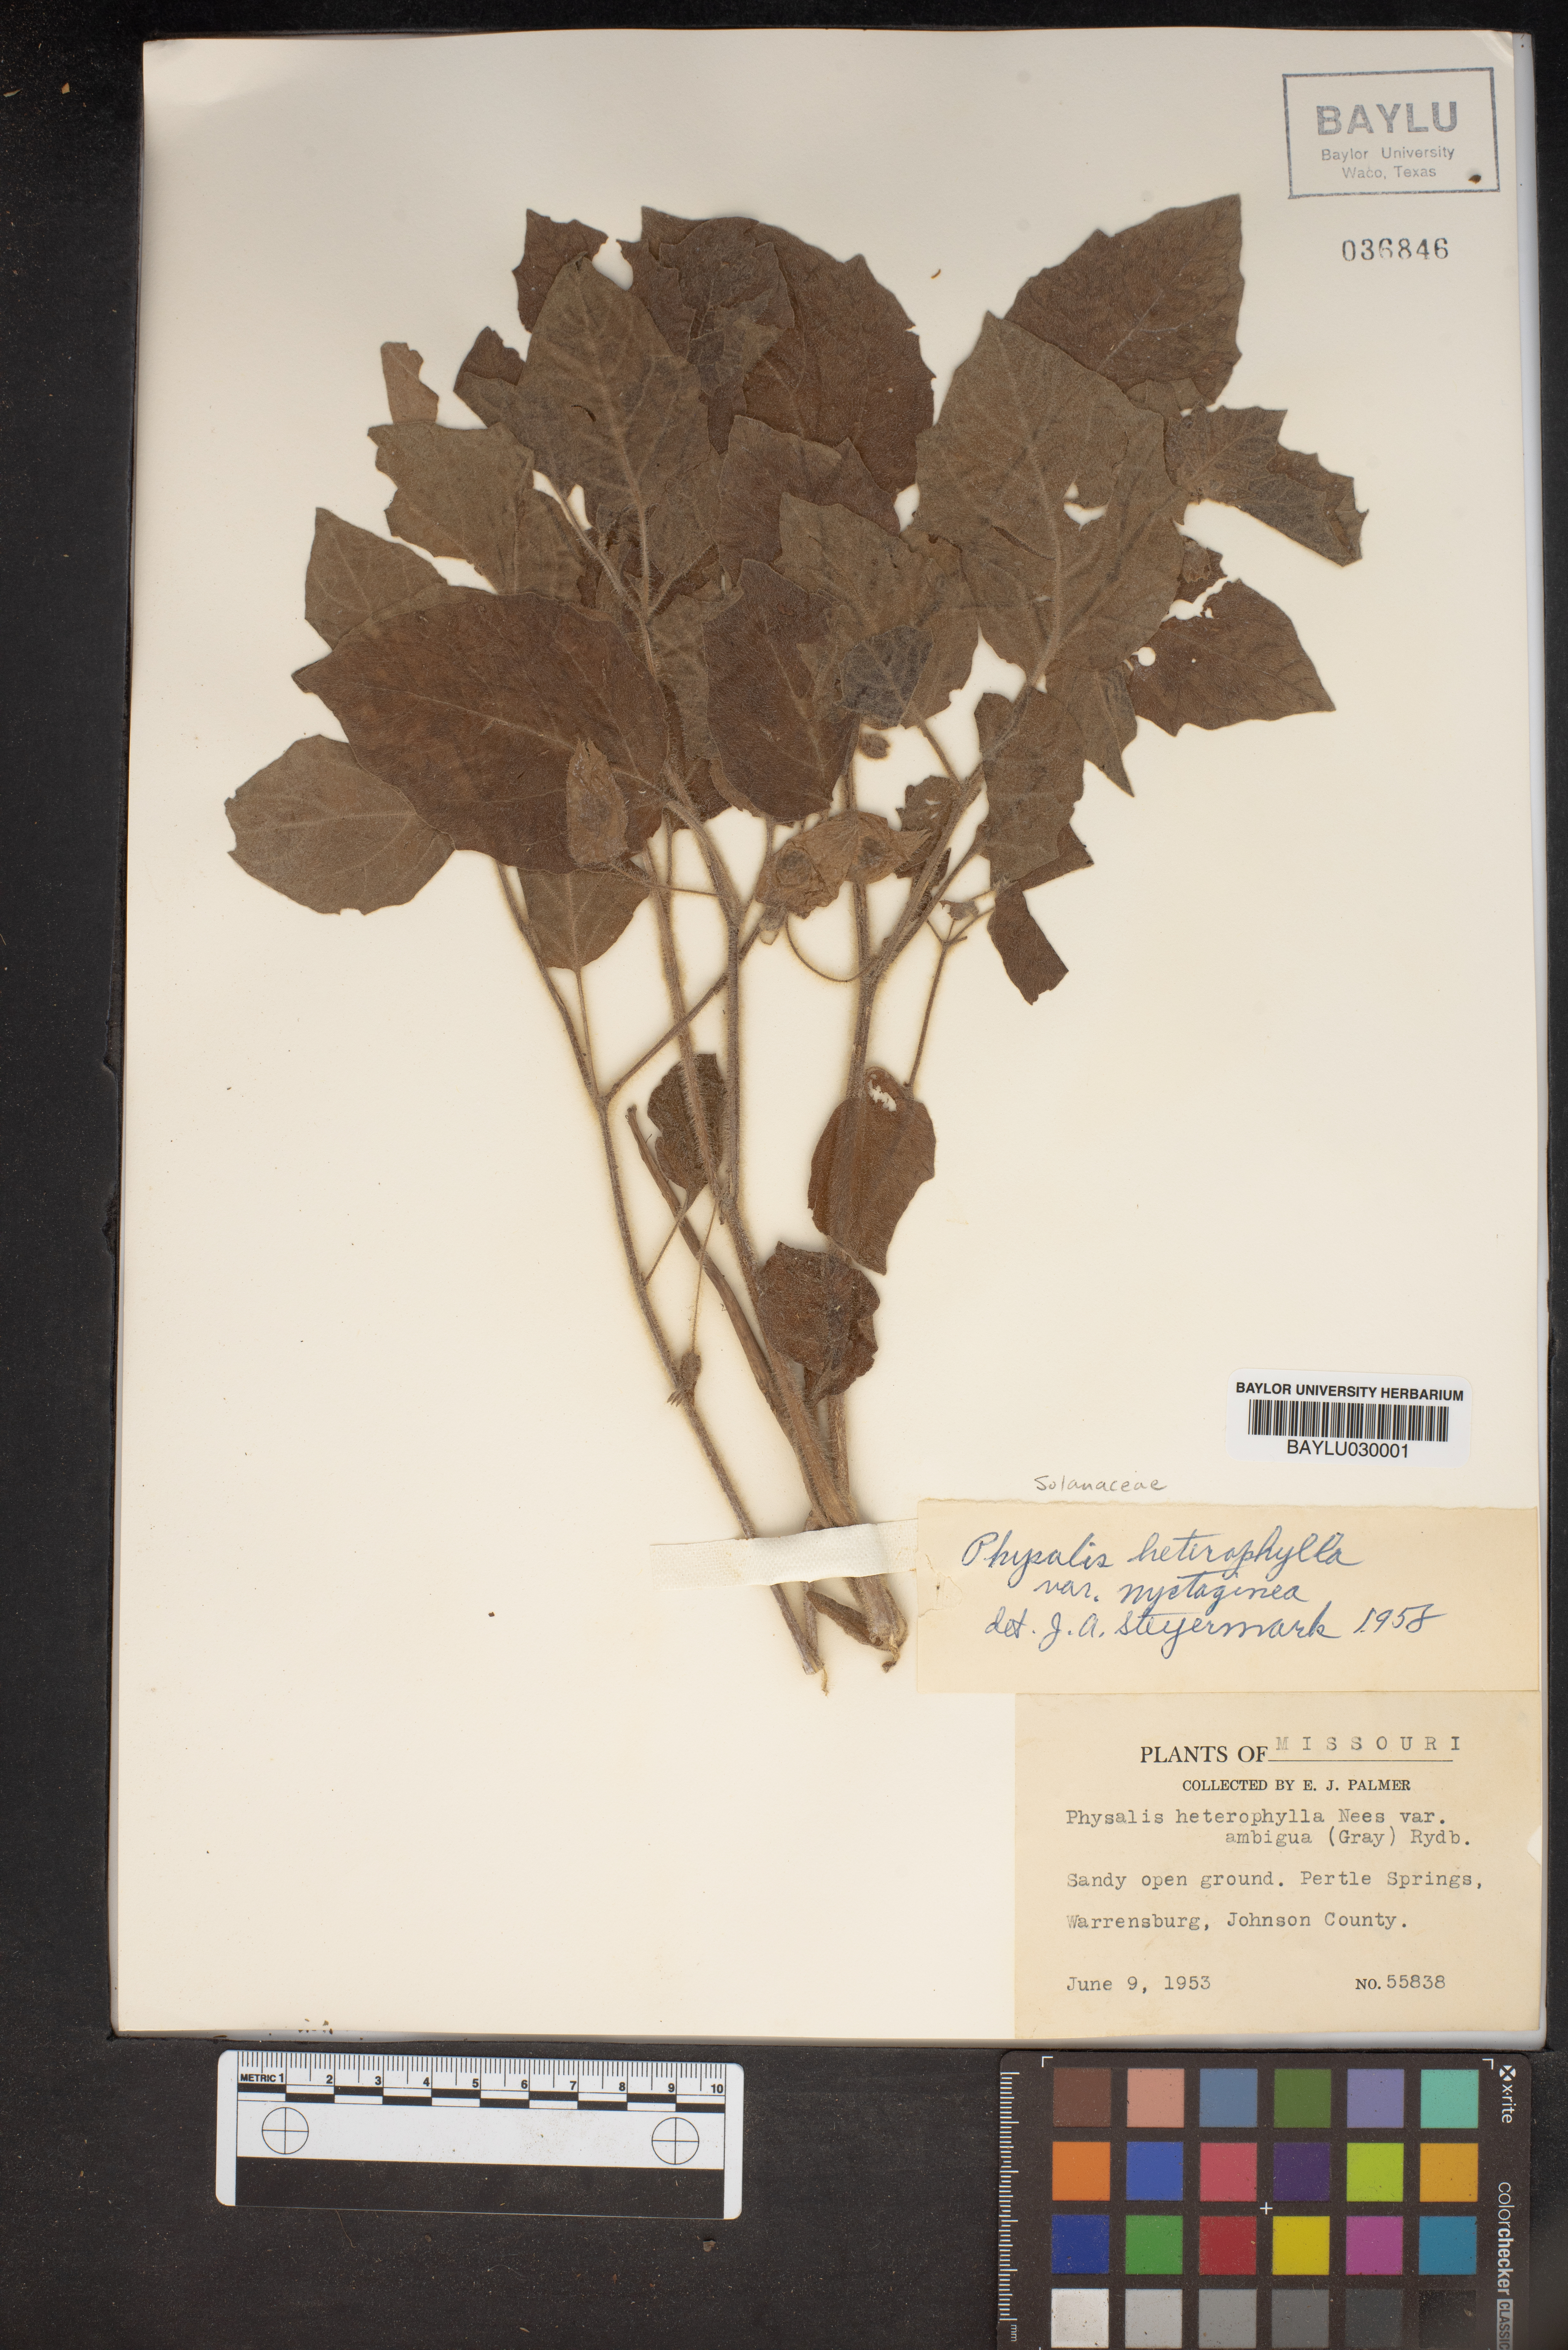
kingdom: Plantae
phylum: Tracheophyta
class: Magnoliopsida
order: Solanales
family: Solanaceae
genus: Physalis
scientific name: Physalis heterophylla
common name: Clammy ground-cherry
